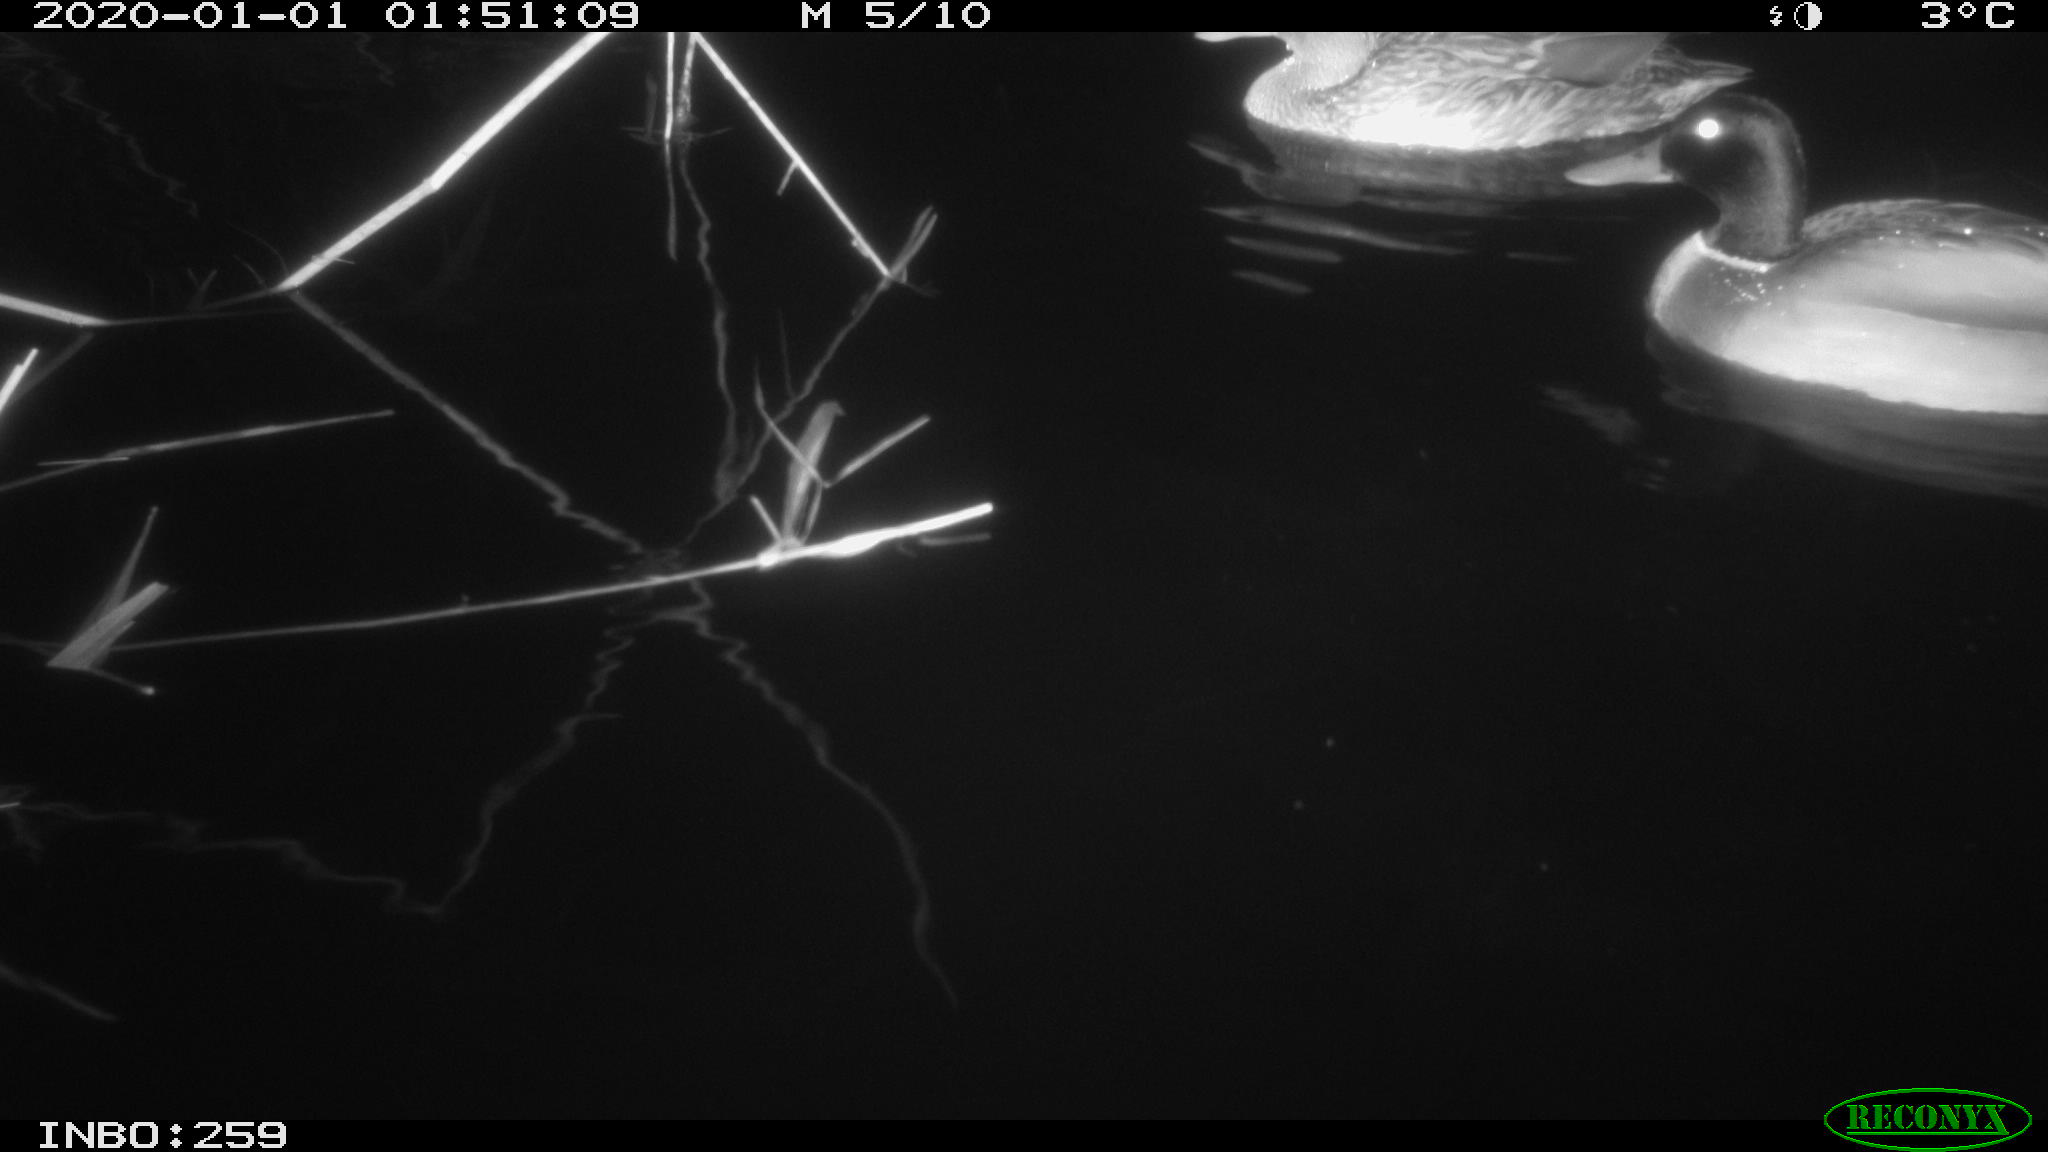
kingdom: Animalia
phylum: Chordata
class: Aves
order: Anseriformes
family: Anatidae
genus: Anas
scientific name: Anas platyrhynchos
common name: Mallard
